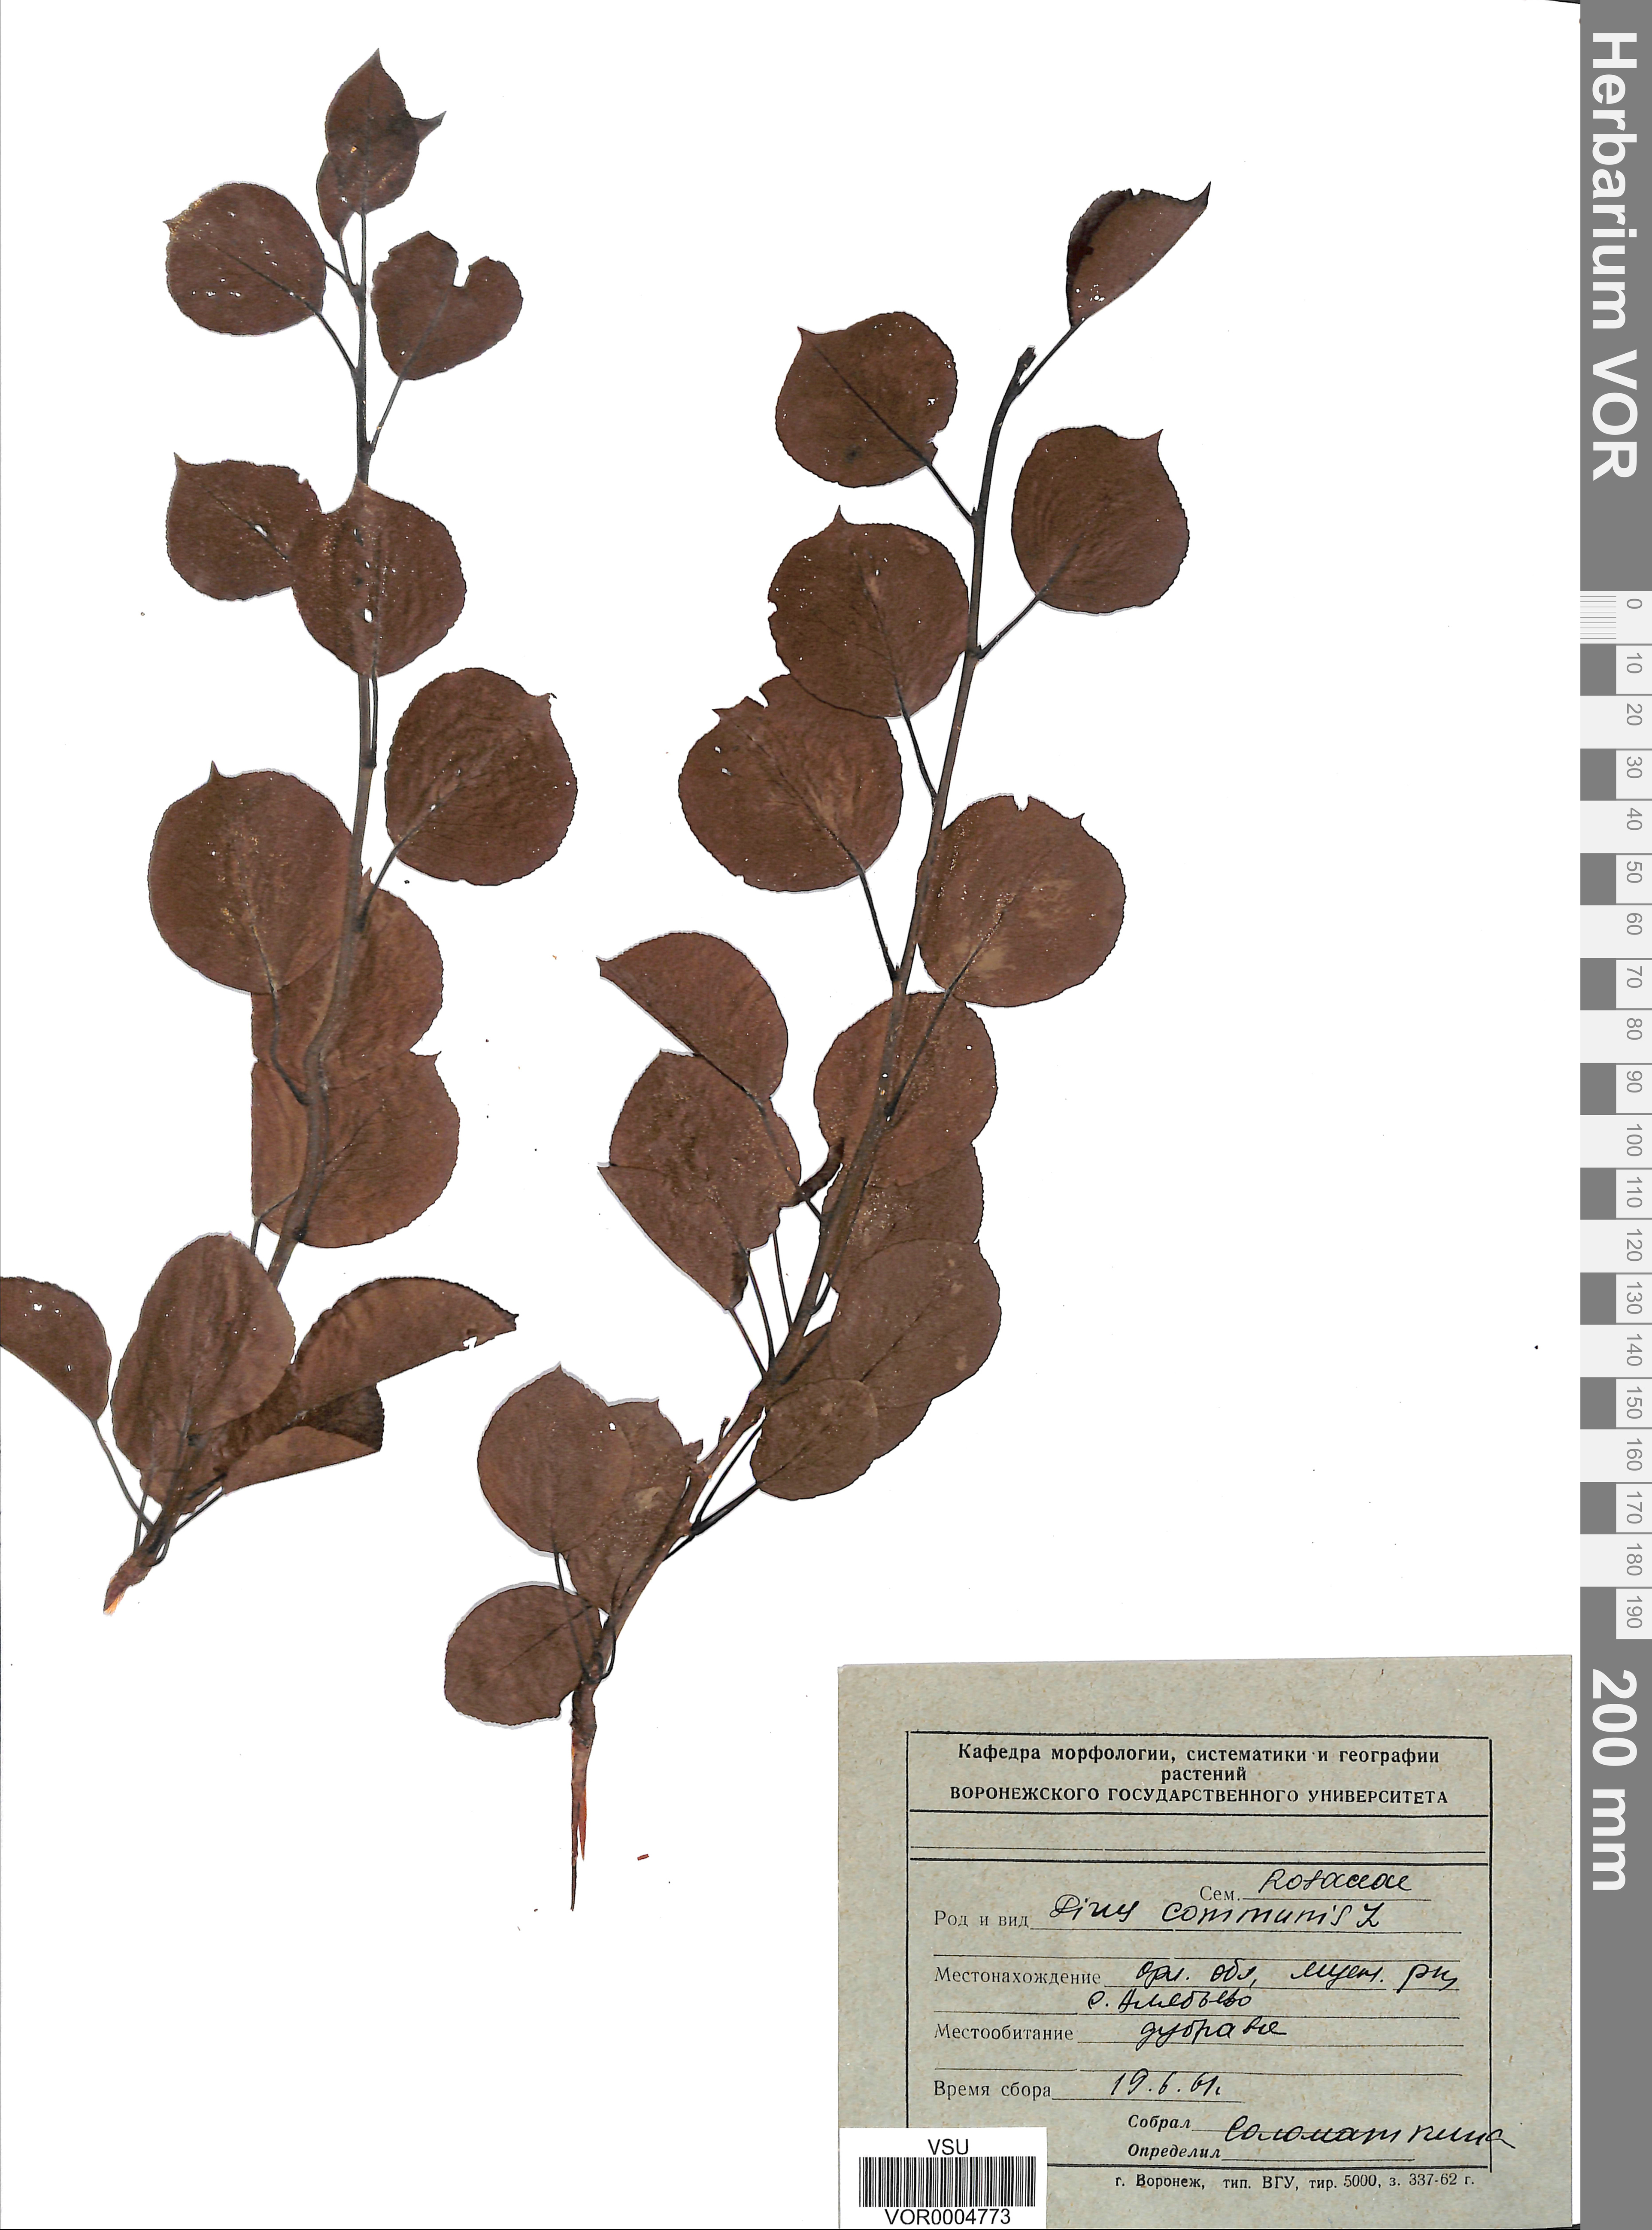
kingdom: Plantae
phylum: Tracheophyta
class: Magnoliopsida
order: Rosales
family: Rosaceae
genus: Pyrus
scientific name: Pyrus communis
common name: Pear
